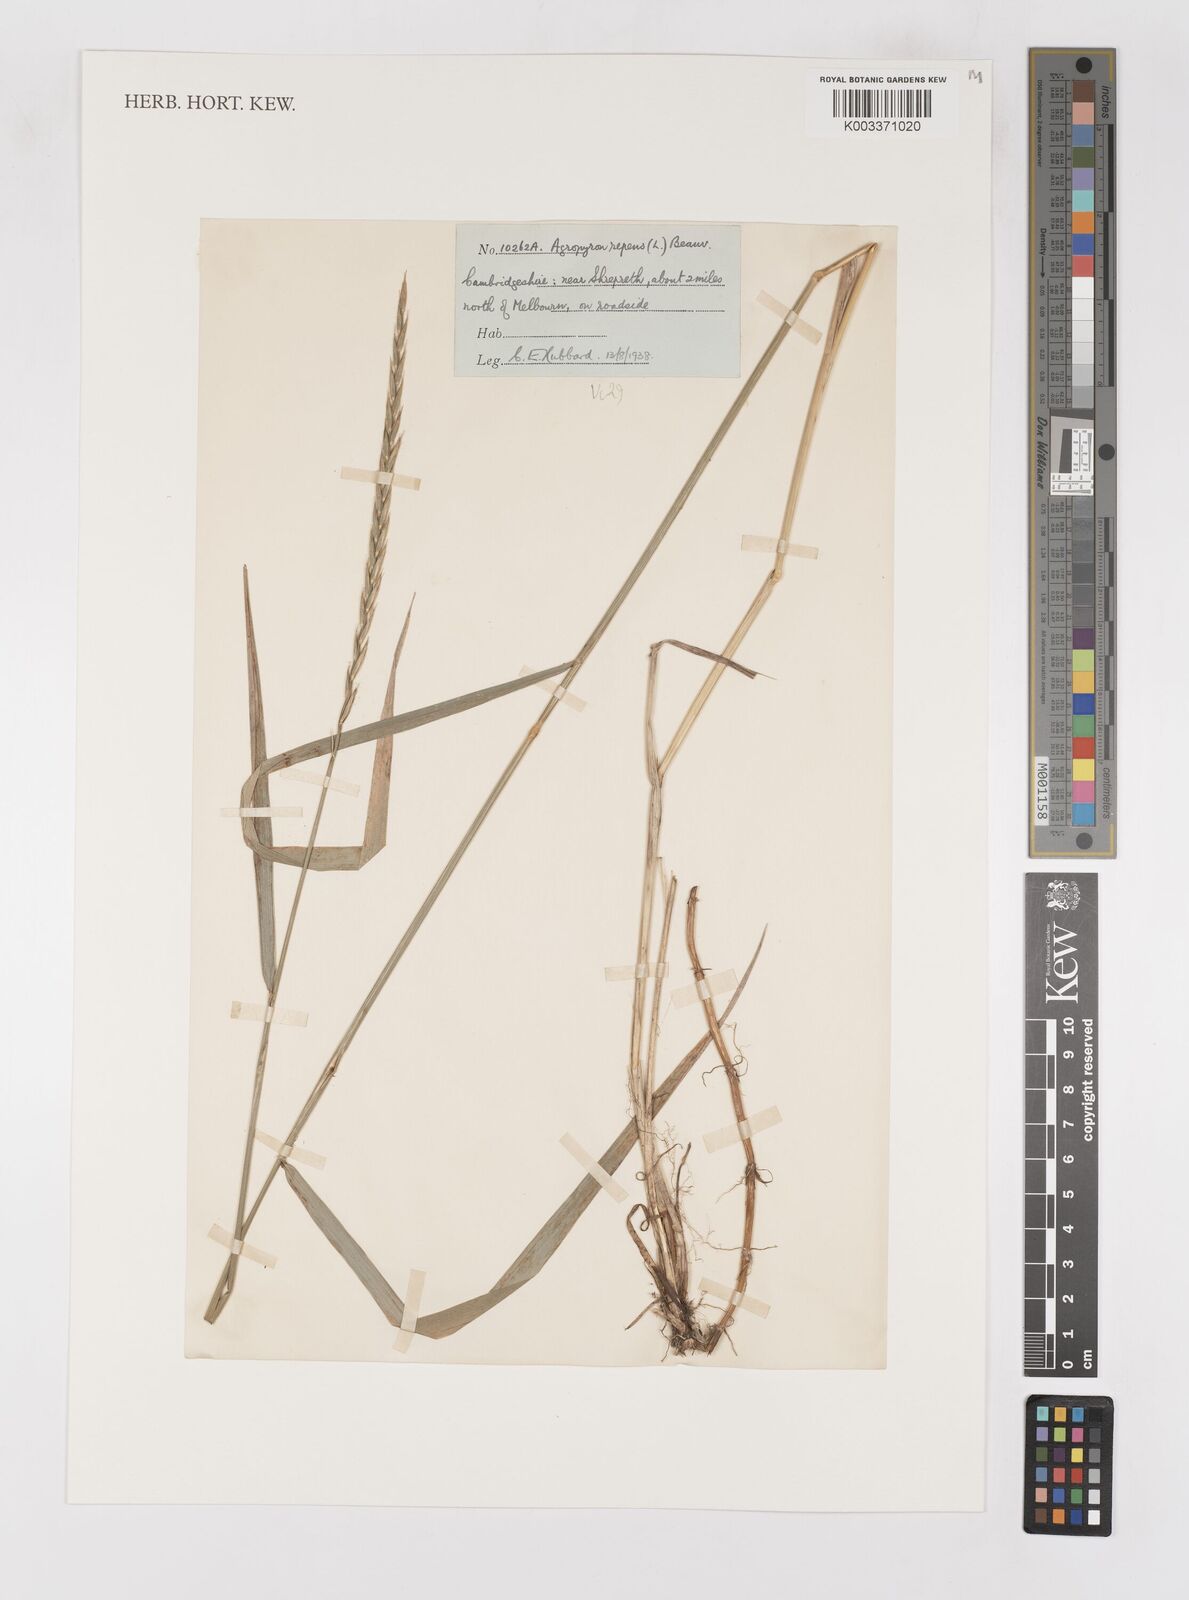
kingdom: Plantae
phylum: Tracheophyta
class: Liliopsida
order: Poales
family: Poaceae
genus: Elymus
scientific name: Elymus repens
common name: Quackgrass
